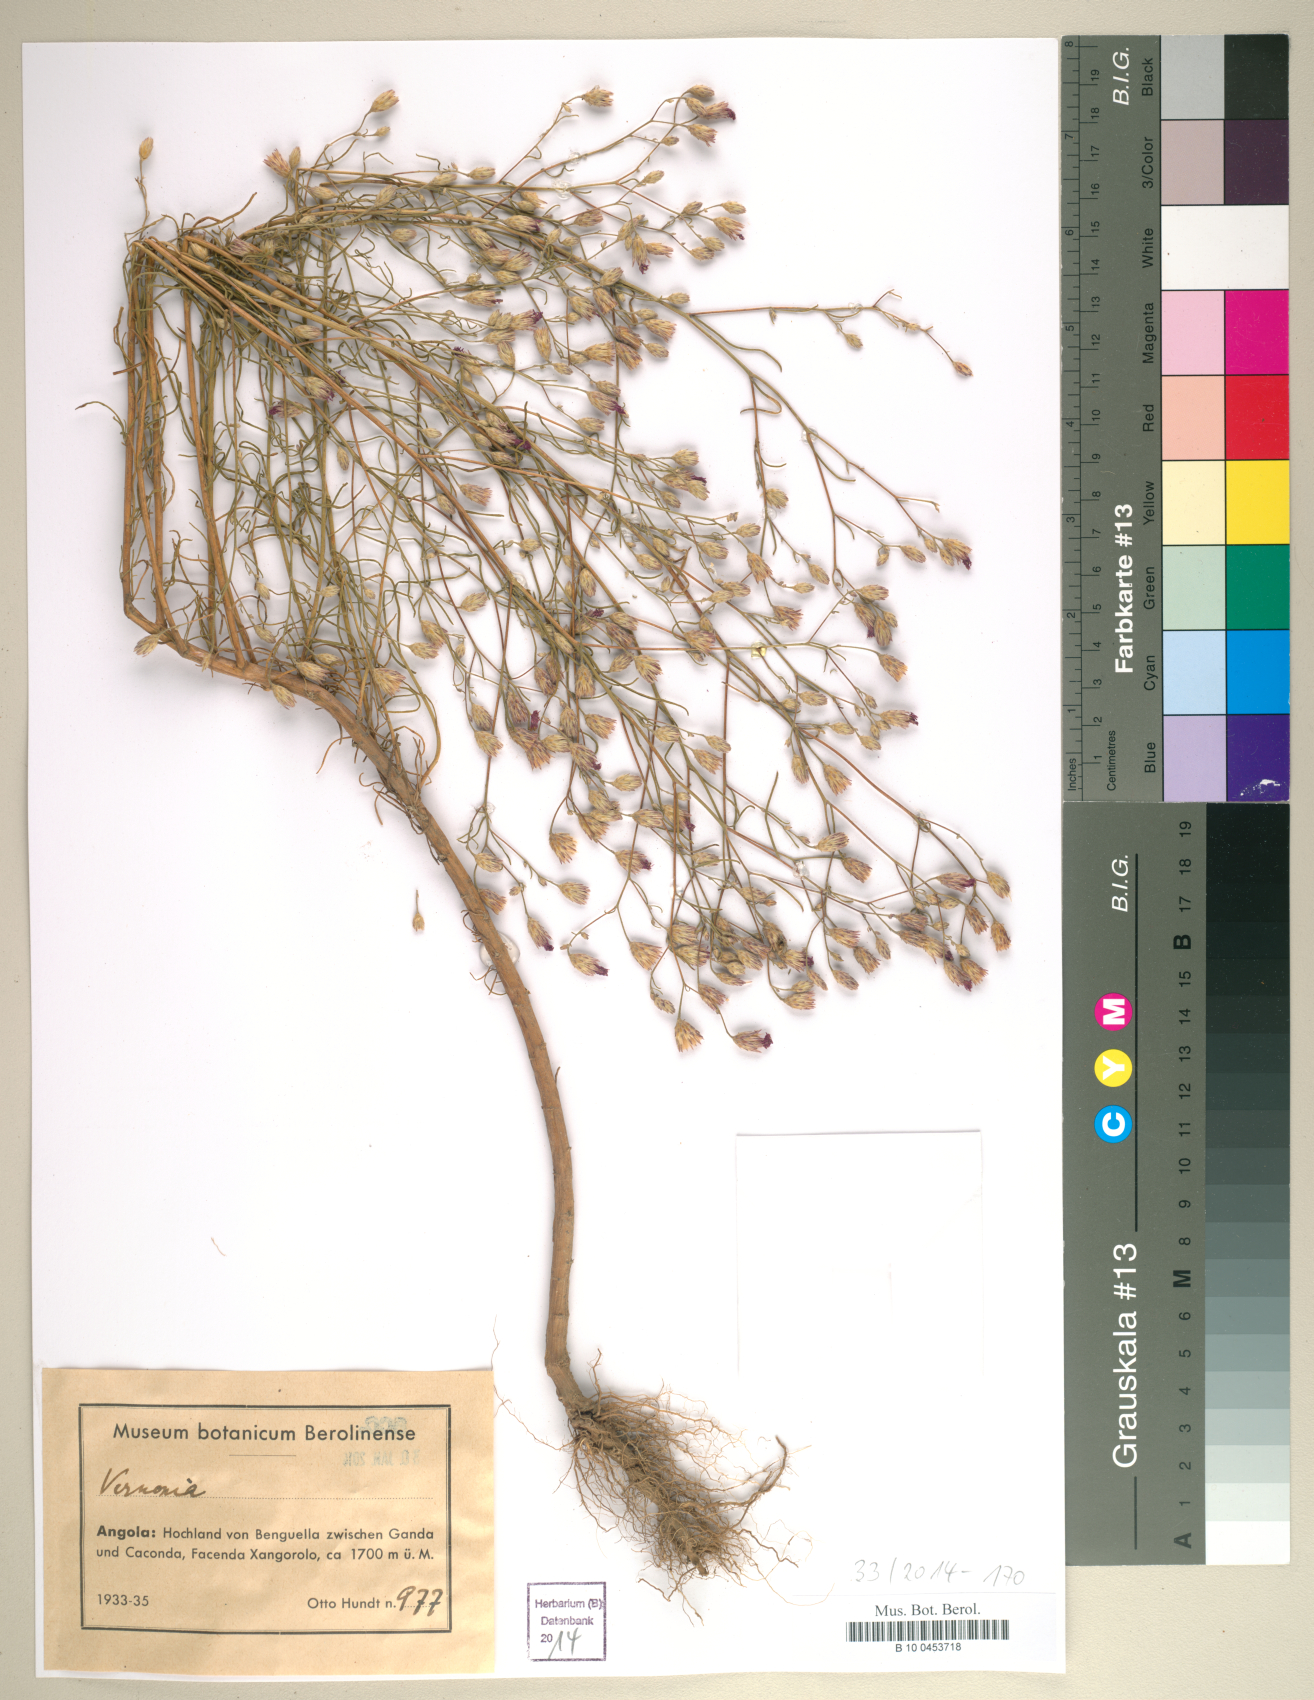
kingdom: Plantae
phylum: Tracheophyta
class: Magnoliopsida
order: Asterales
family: Asteraceae
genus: Vernonia
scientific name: Vernonia
